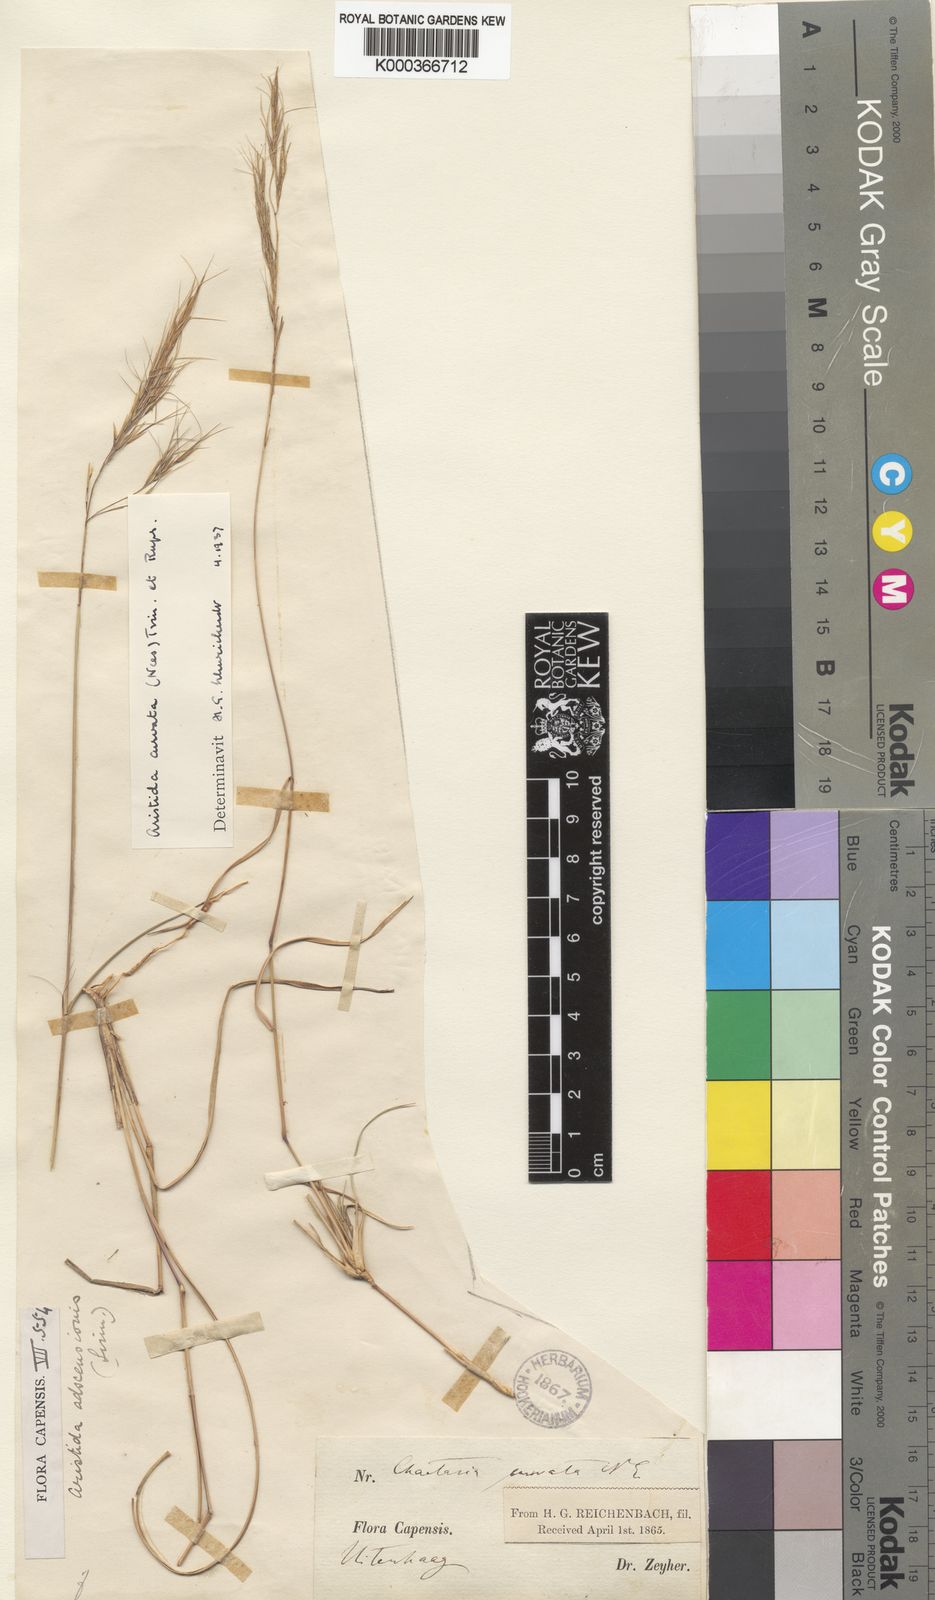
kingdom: Plantae
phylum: Tracheophyta
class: Liliopsida
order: Poales
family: Poaceae
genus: Aristida
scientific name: Aristida adscensionis
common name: Sixweeks threeawn
